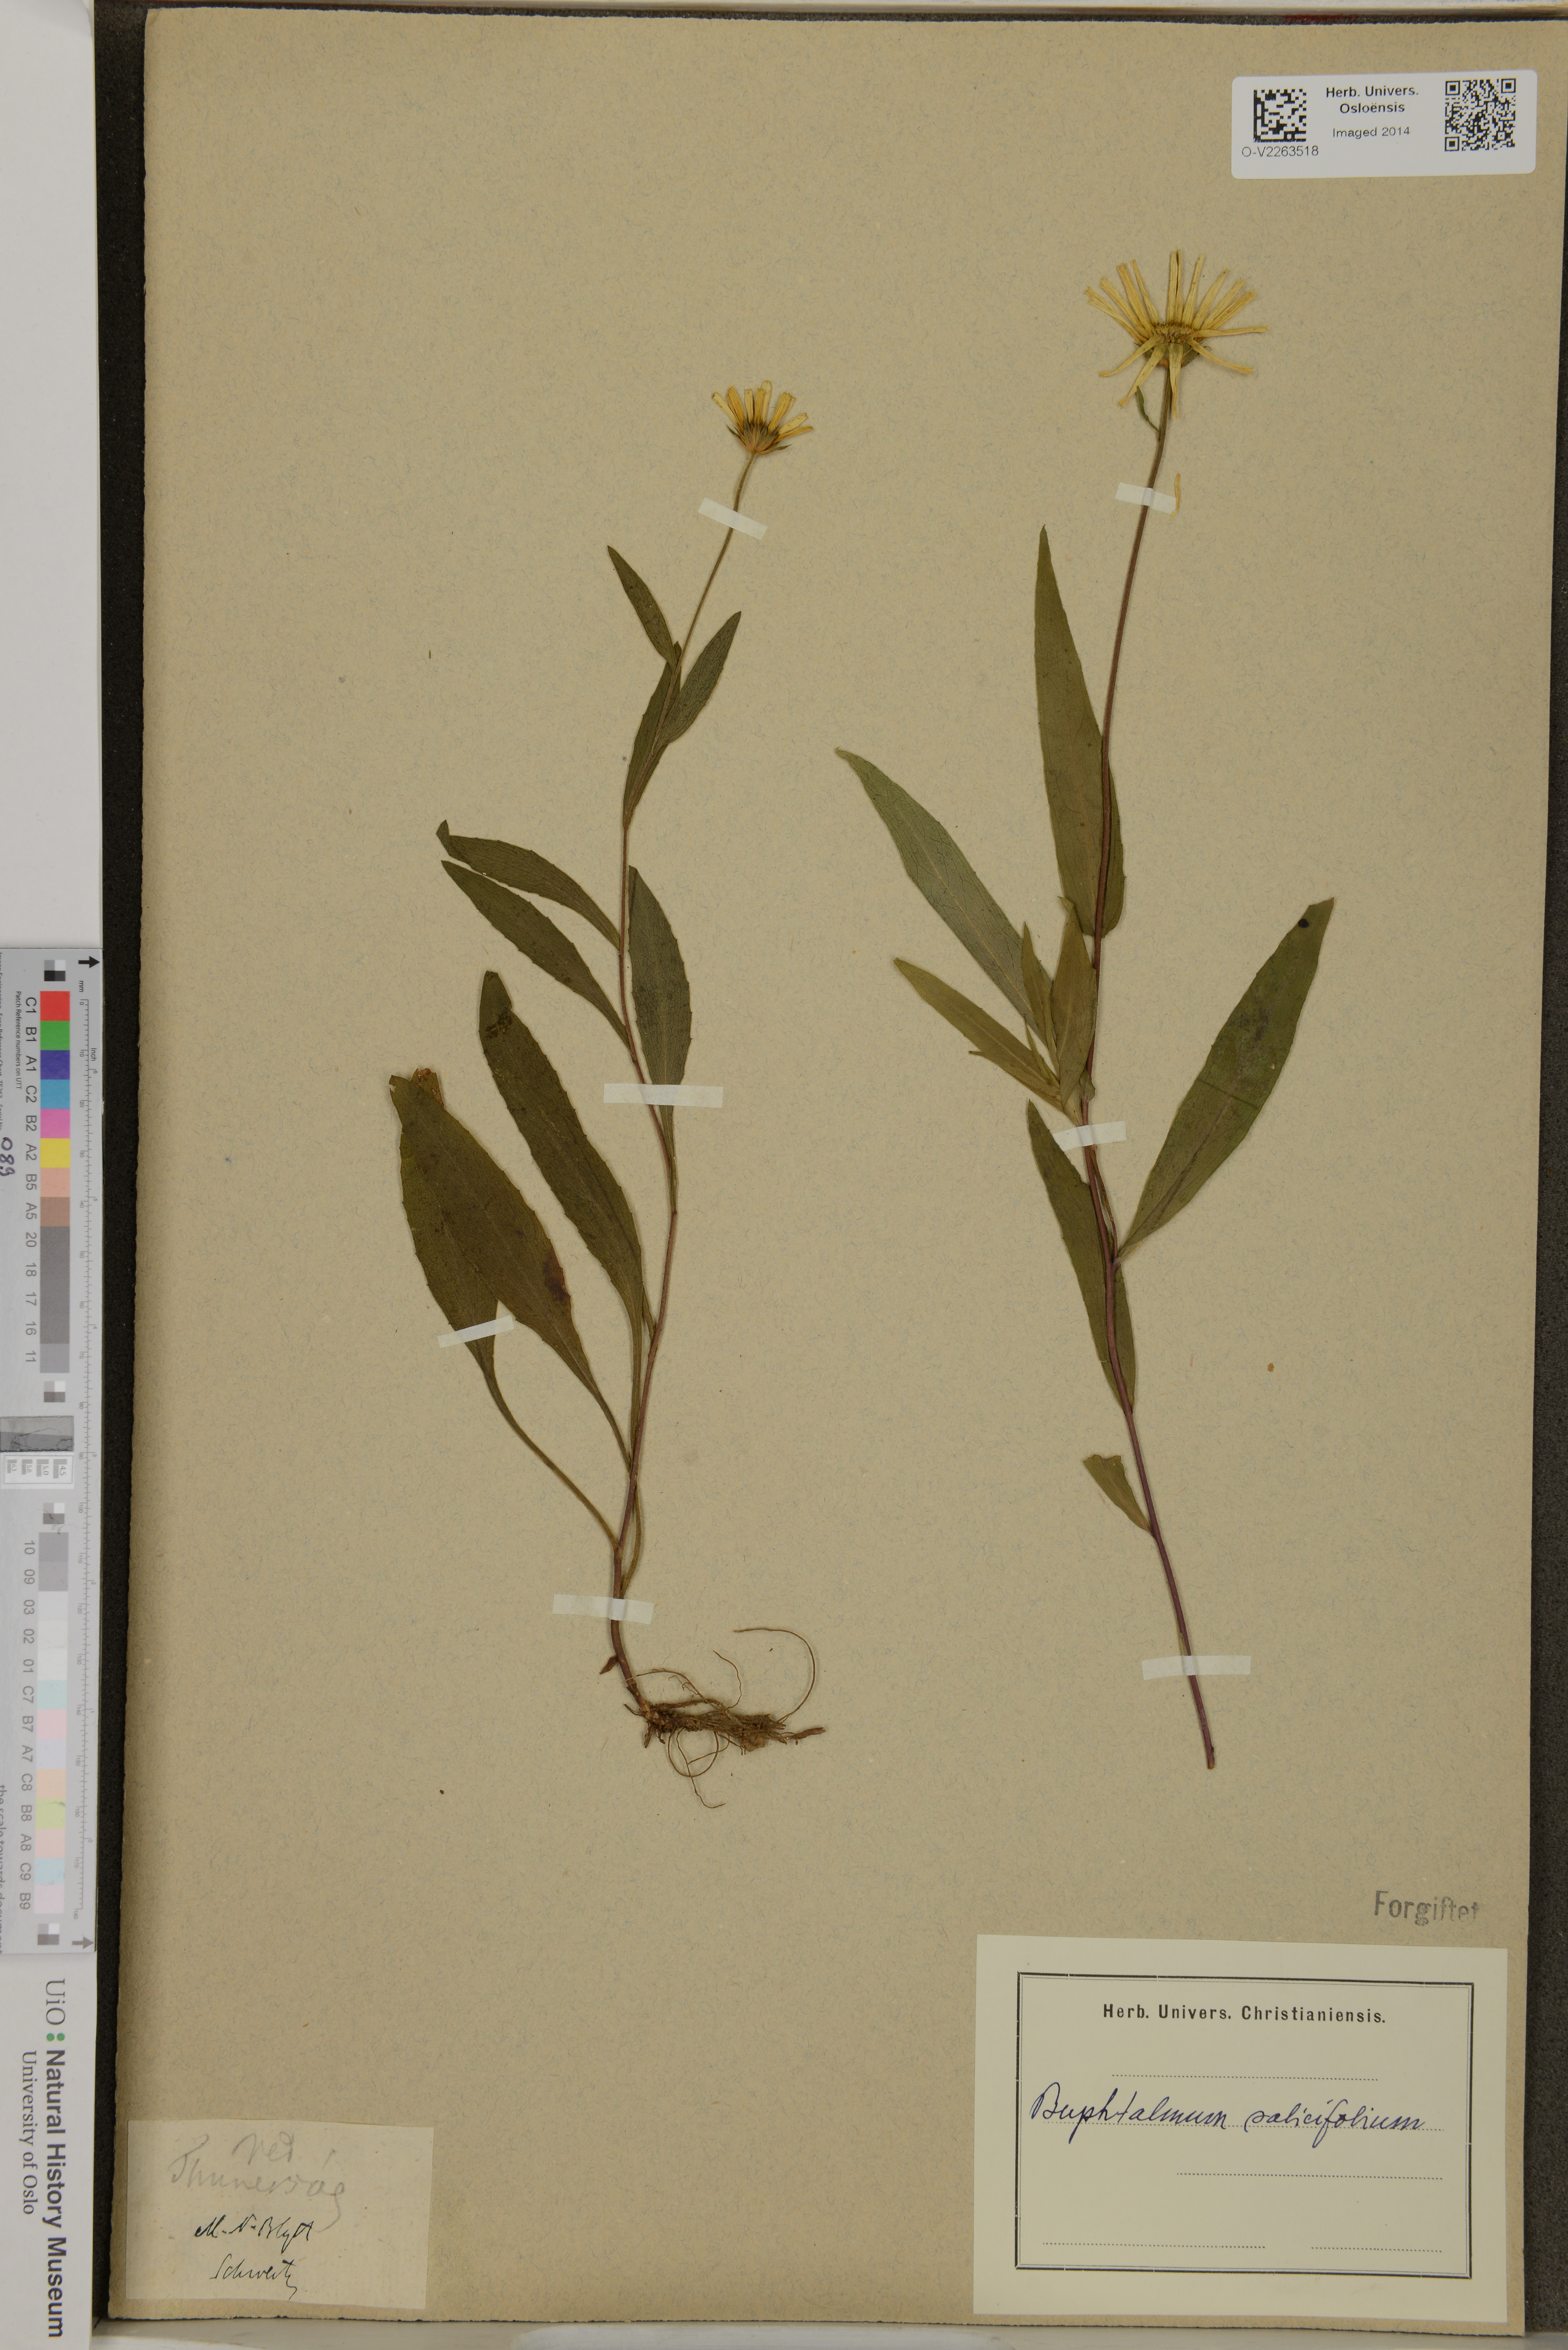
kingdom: Plantae
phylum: Tracheophyta
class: Magnoliopsida
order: Asterales
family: Asteraceae
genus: Buphthalmum
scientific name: Buphthalmum salicifolium
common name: Willow-leaved yellow-oxeye
